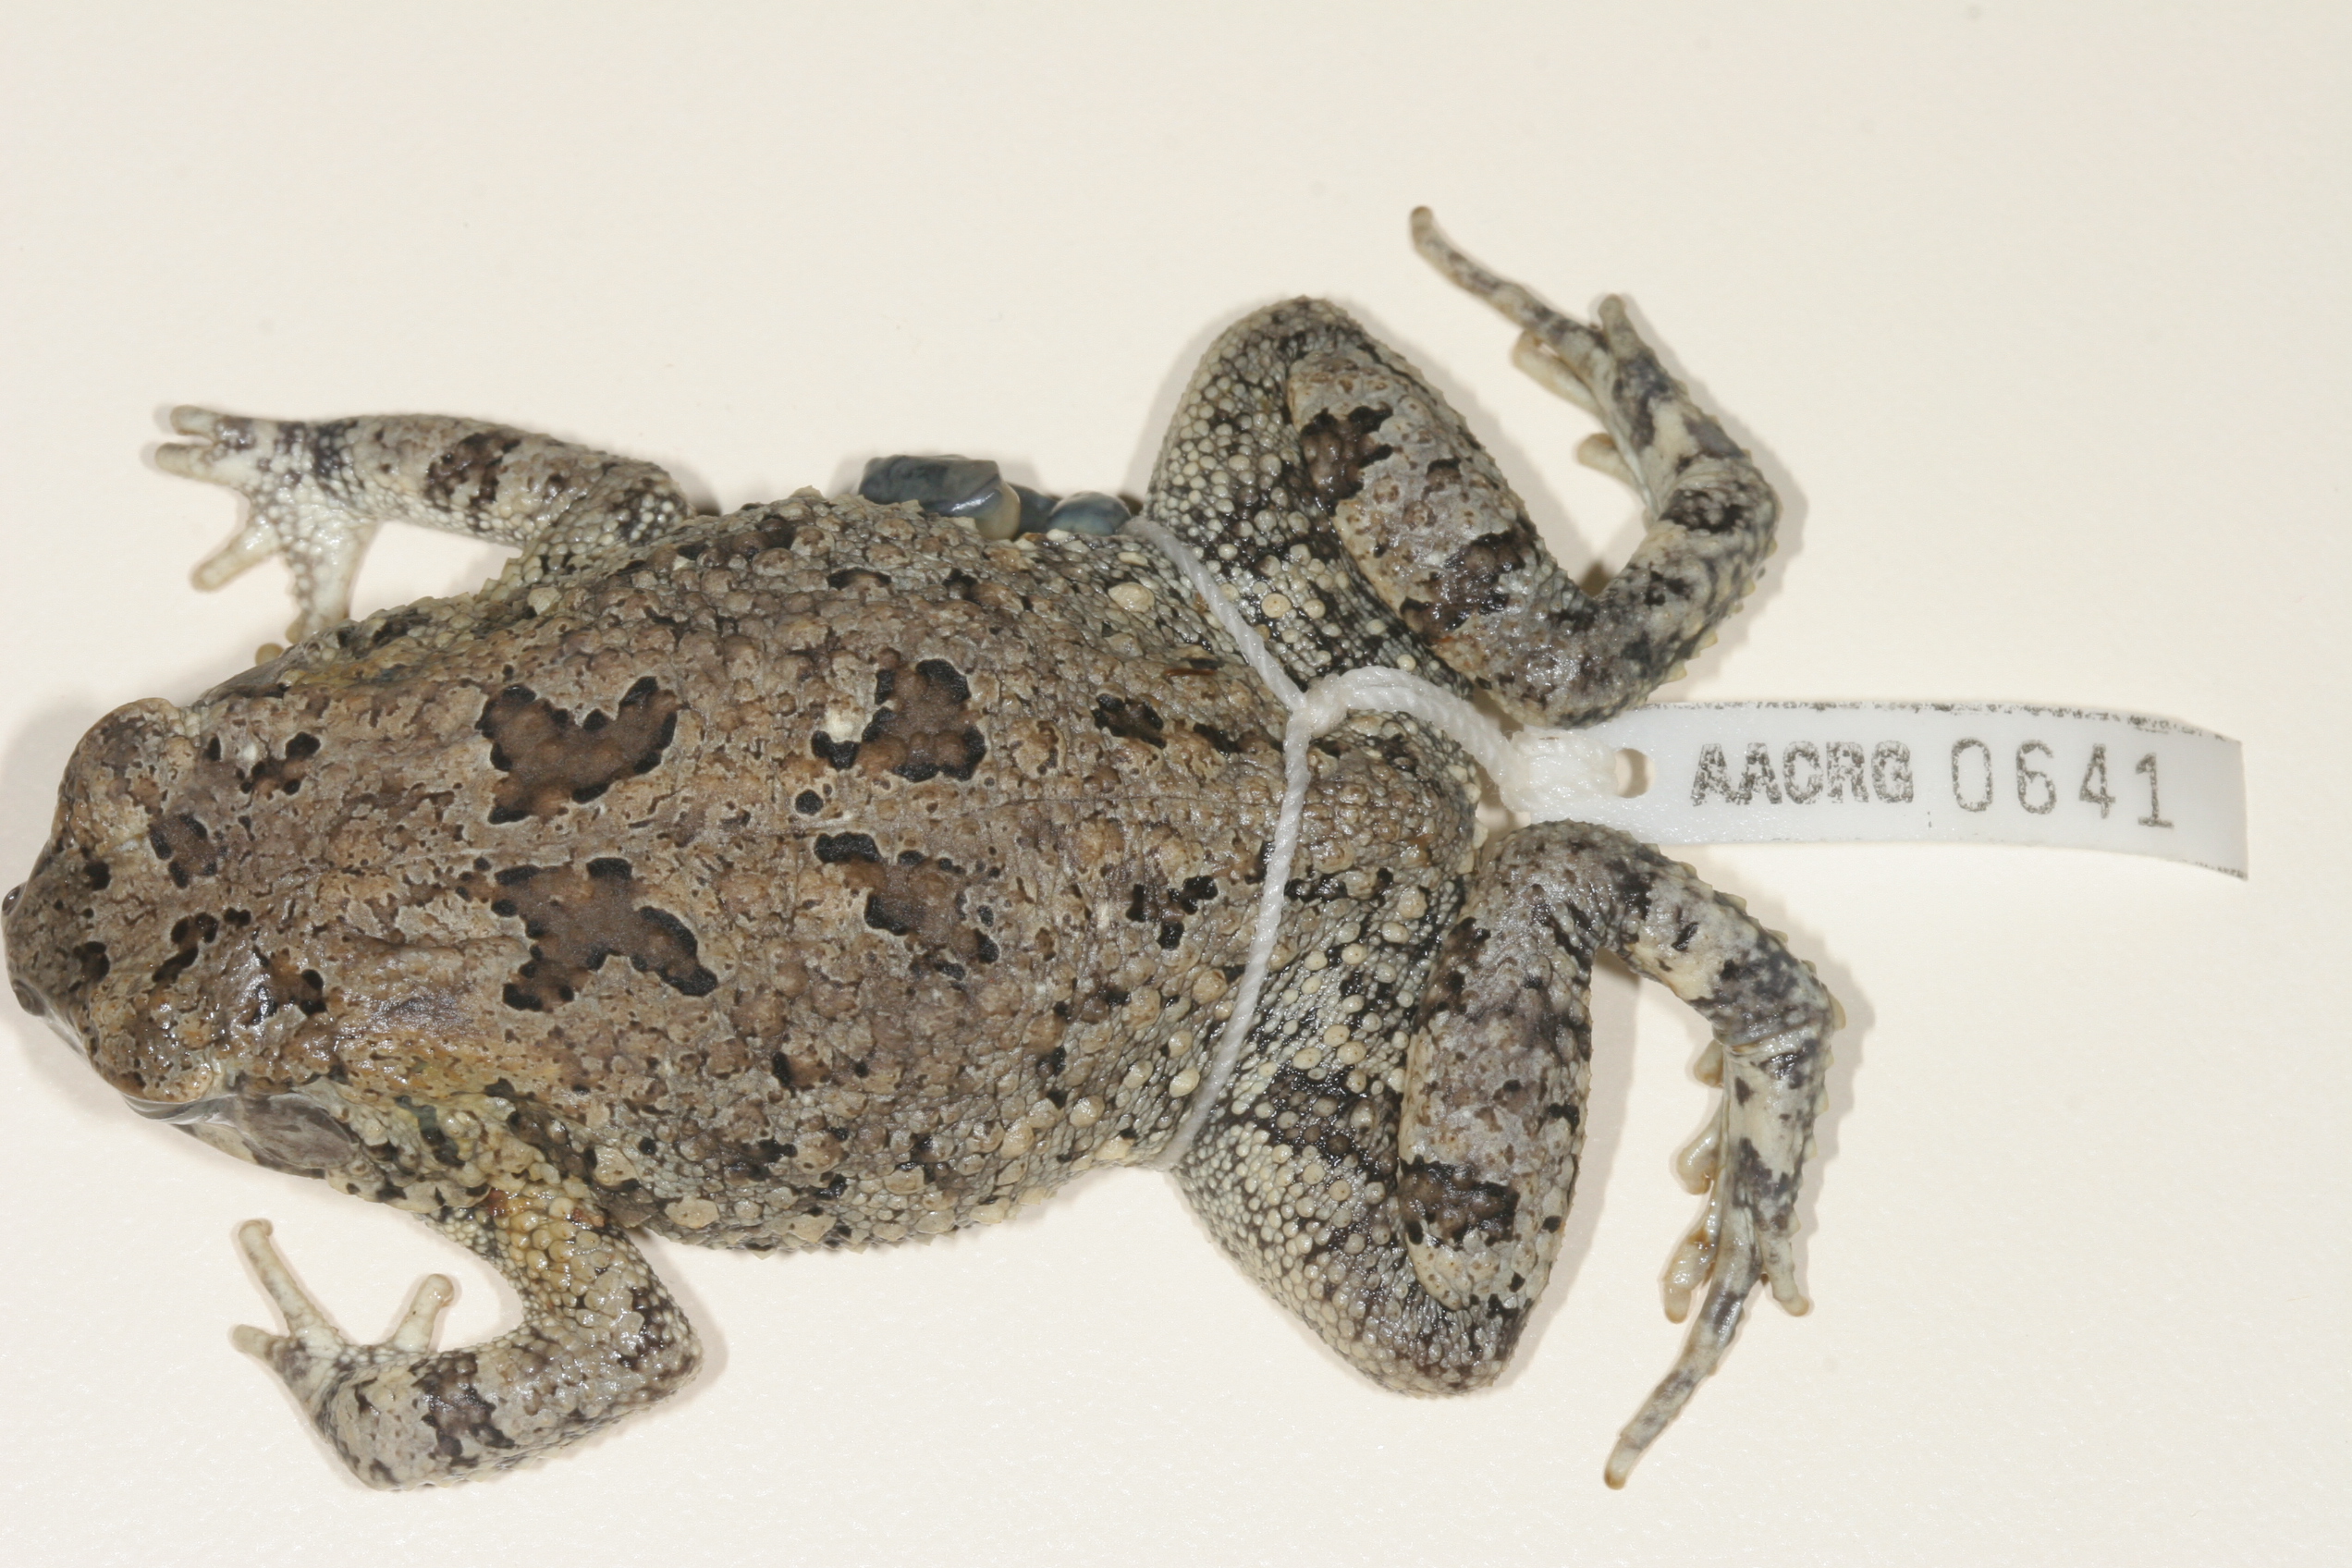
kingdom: Animalia
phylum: Chordata
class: Amphibia
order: Anura
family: Bufonidae
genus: Sclerophrys
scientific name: Sclerophrys maculata
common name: Hallowell's toad
